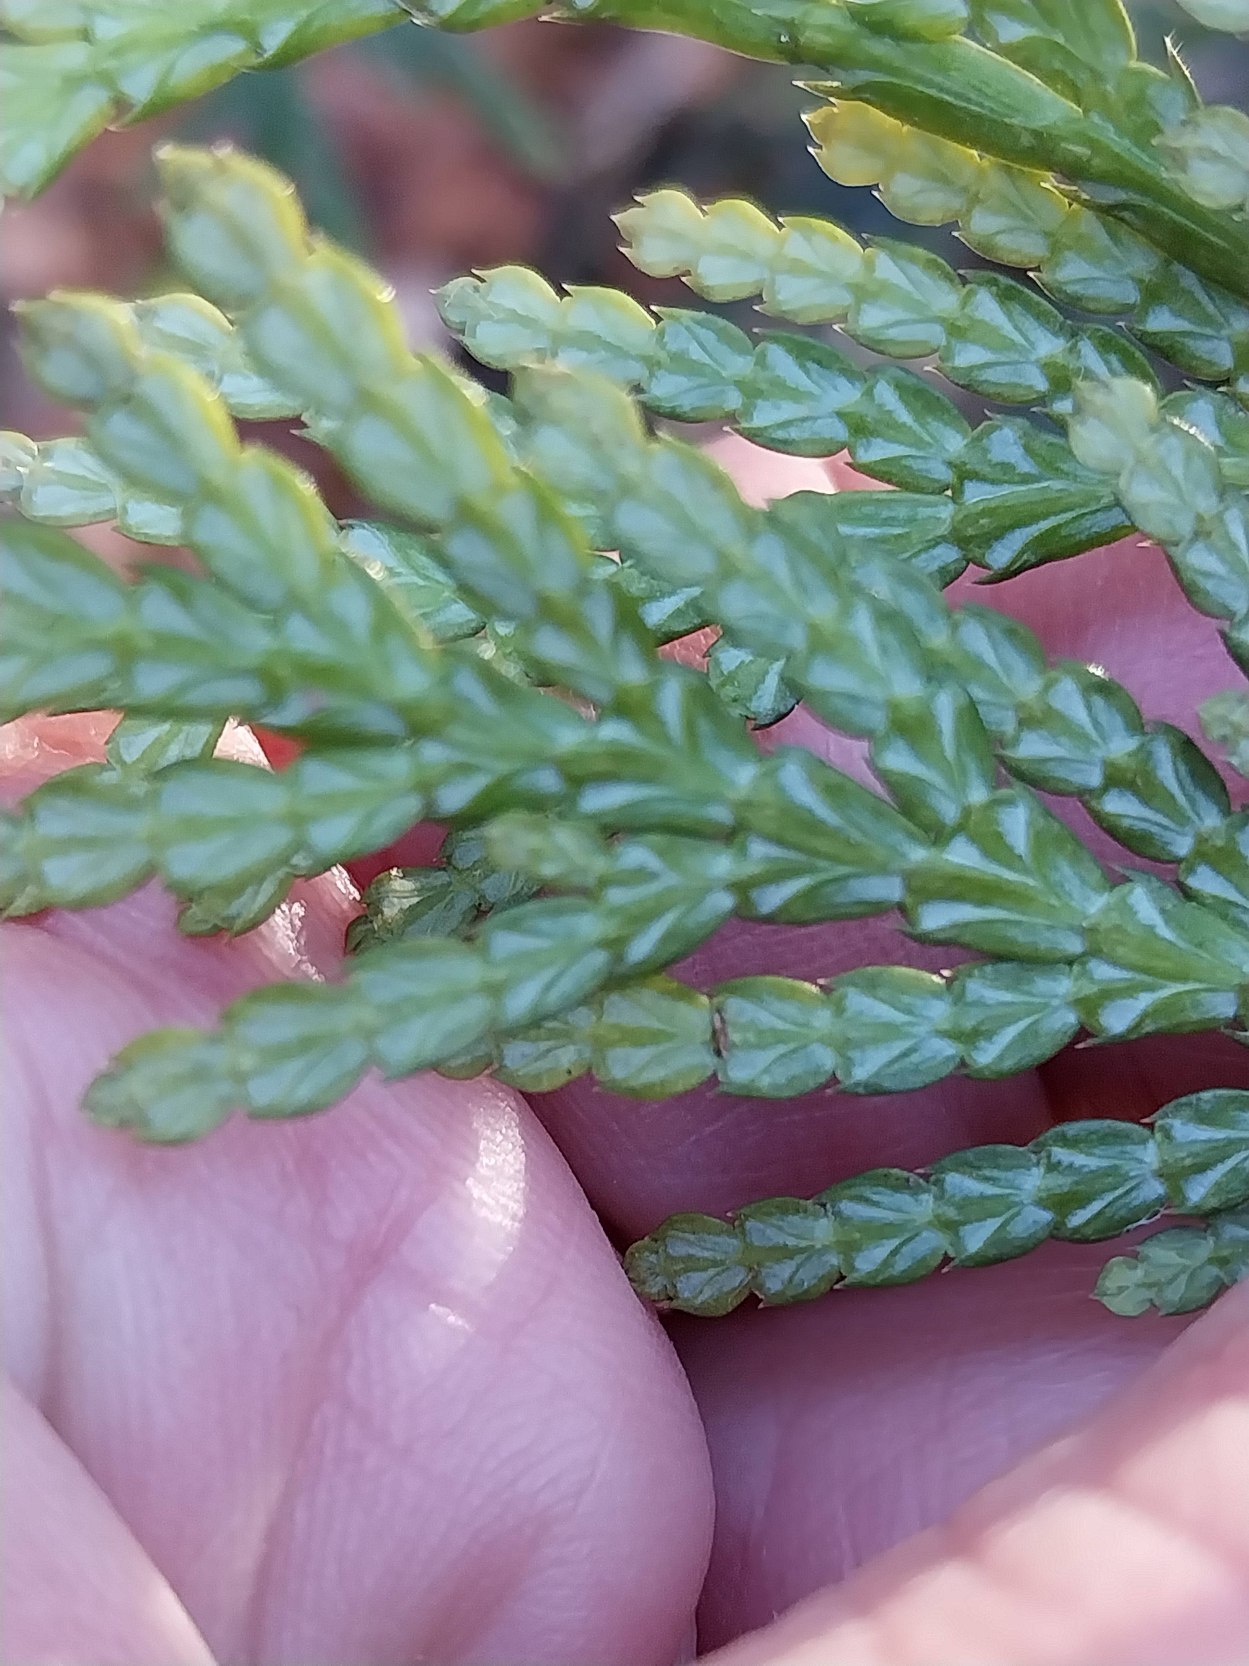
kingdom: Plantae
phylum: Tracheophyta
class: Pinopsida
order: Pinales
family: Cupressaceae
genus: Thuja
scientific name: Thuja plicata
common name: Kæmpe-thuja
